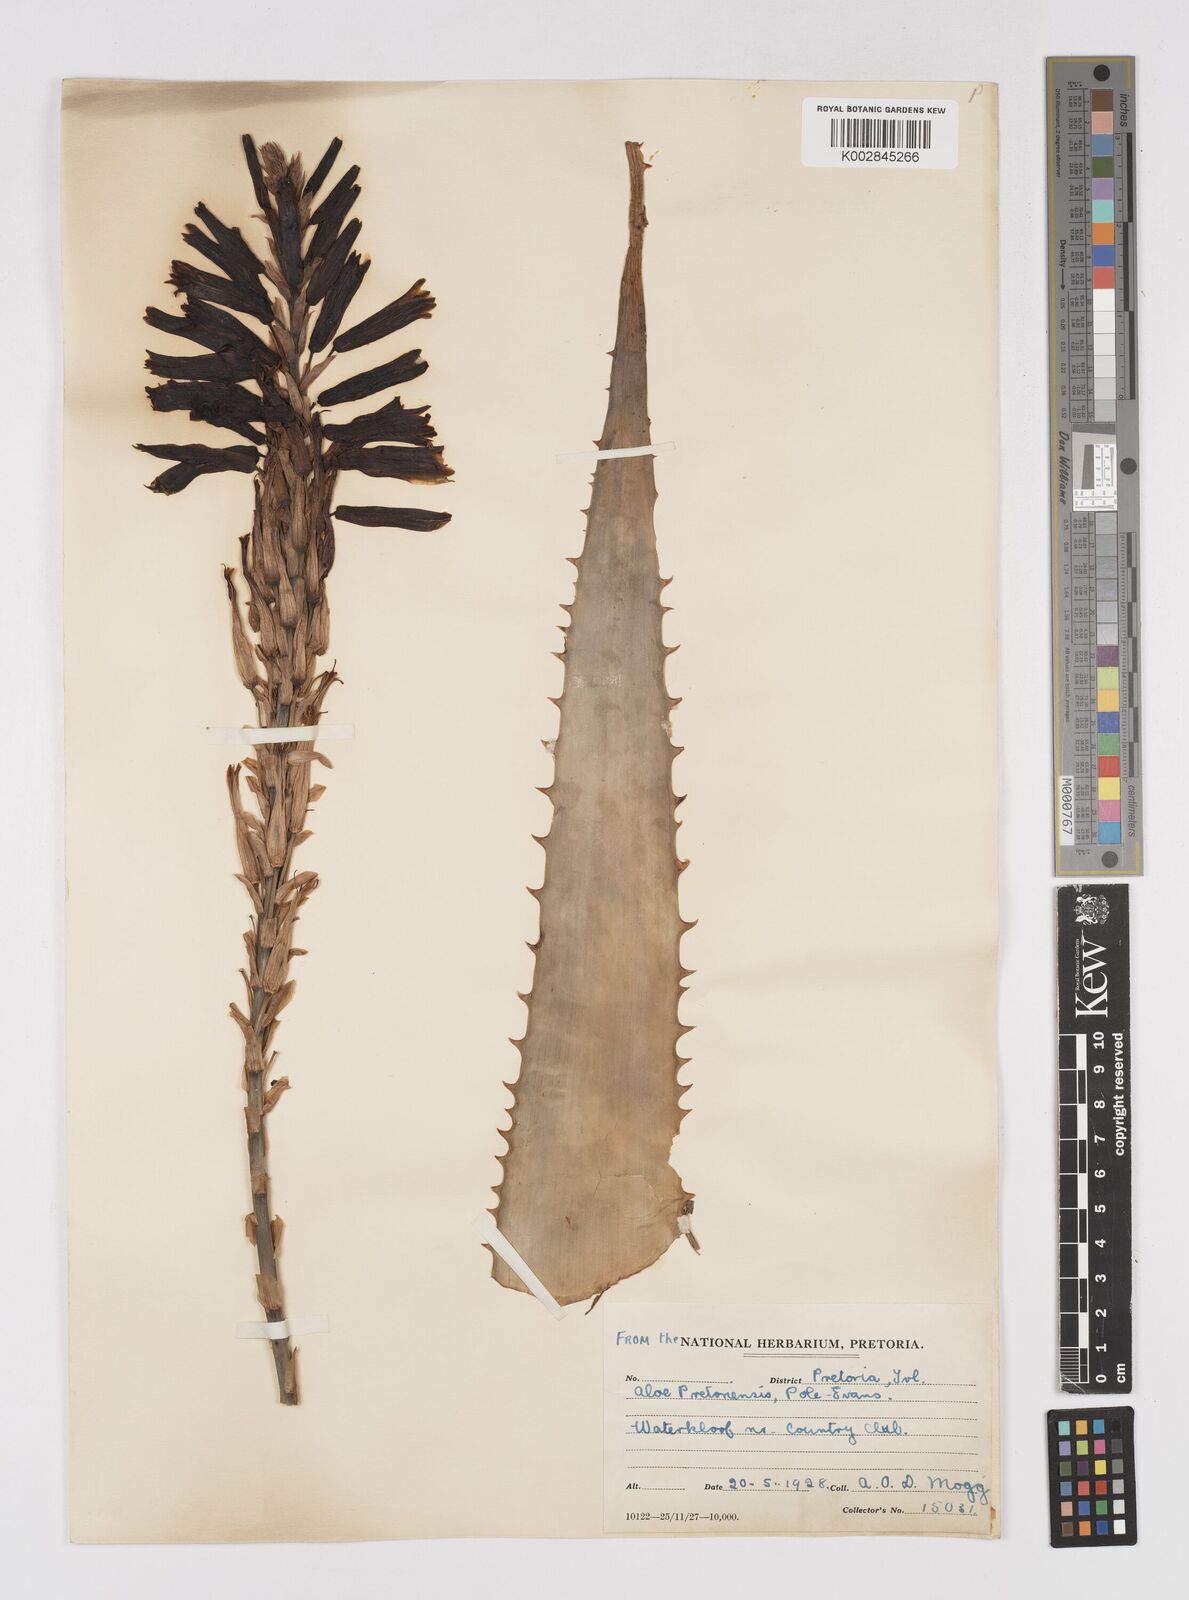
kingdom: Plantae
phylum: Tracheophyta
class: Liliopsida
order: Asparagales
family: Asphodelaceae
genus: Aloe
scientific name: Aloe pretoriensis
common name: Pretoria aloe
